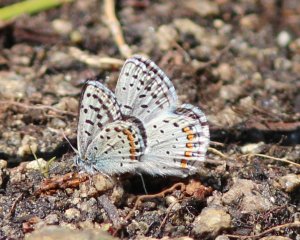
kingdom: Animalia
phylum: Arthropoda
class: Insecta
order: Lepidoptera
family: Lycaenidae
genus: Plebejus
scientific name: Plebejus acmon
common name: Acmon Blue
